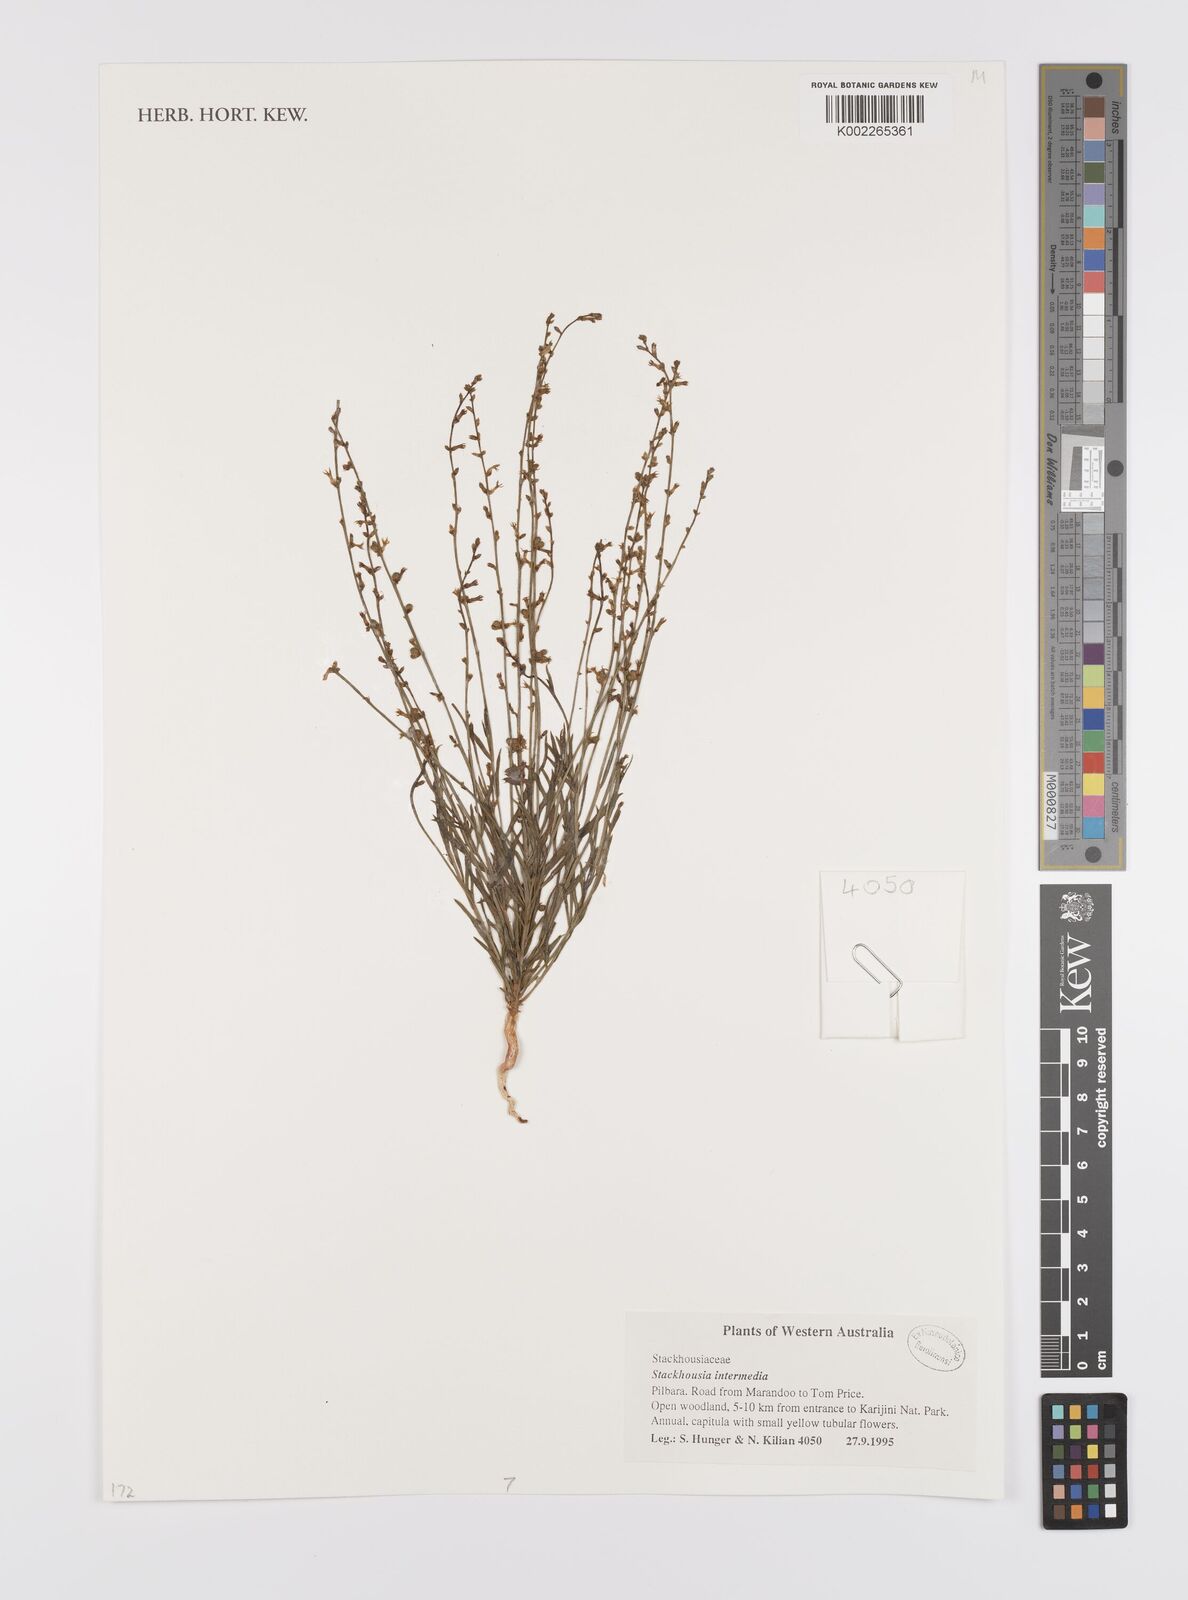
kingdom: Plantae
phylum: Tracheophyta
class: Magnoliopsida
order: Celastrales
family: Celastraceae
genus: Stackhousia
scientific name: Stackhousia intermedia
